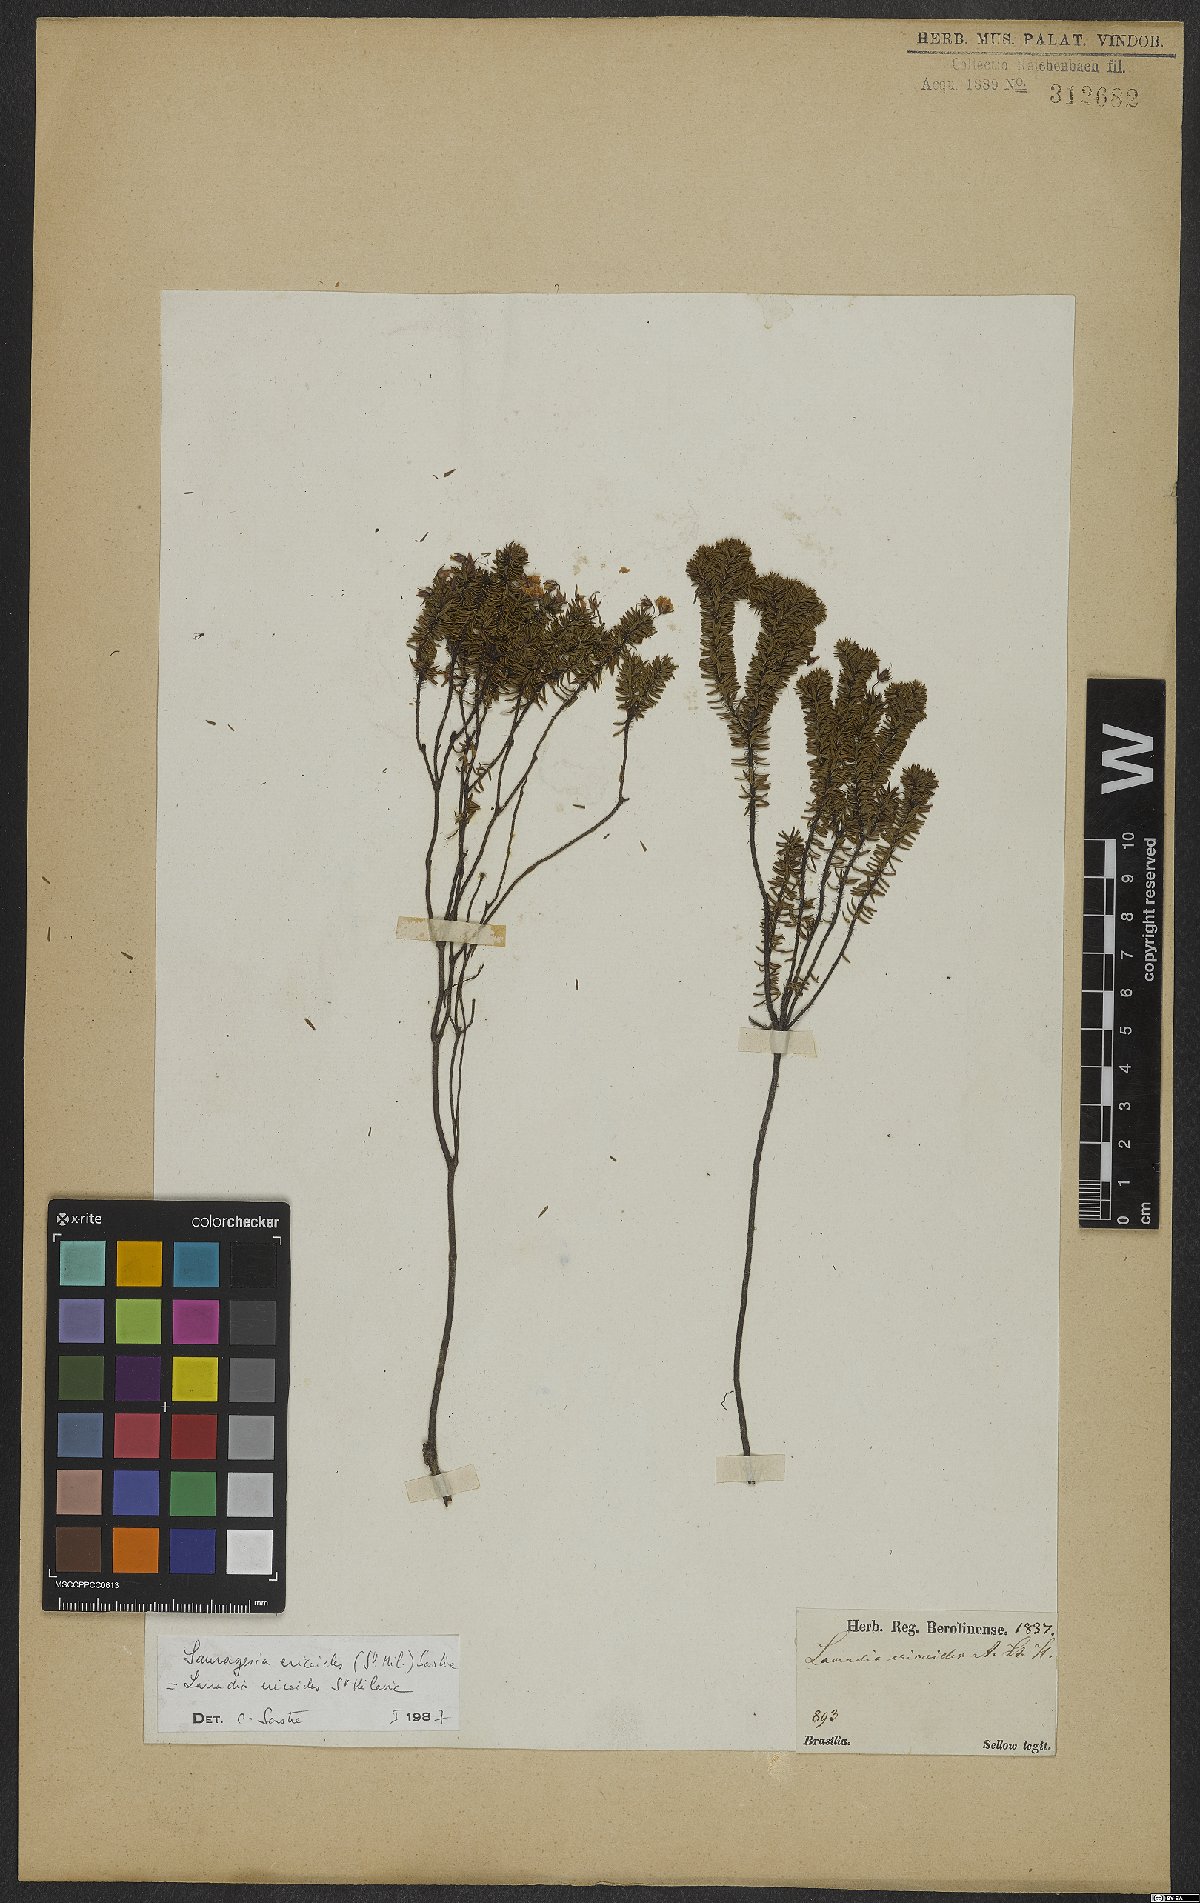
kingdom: Plantae
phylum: Tracheophyta
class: Magnoliopsida
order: Malpighiales
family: Ochnaceae
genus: Sauvagesia
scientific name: Sauvagesia ericoides
